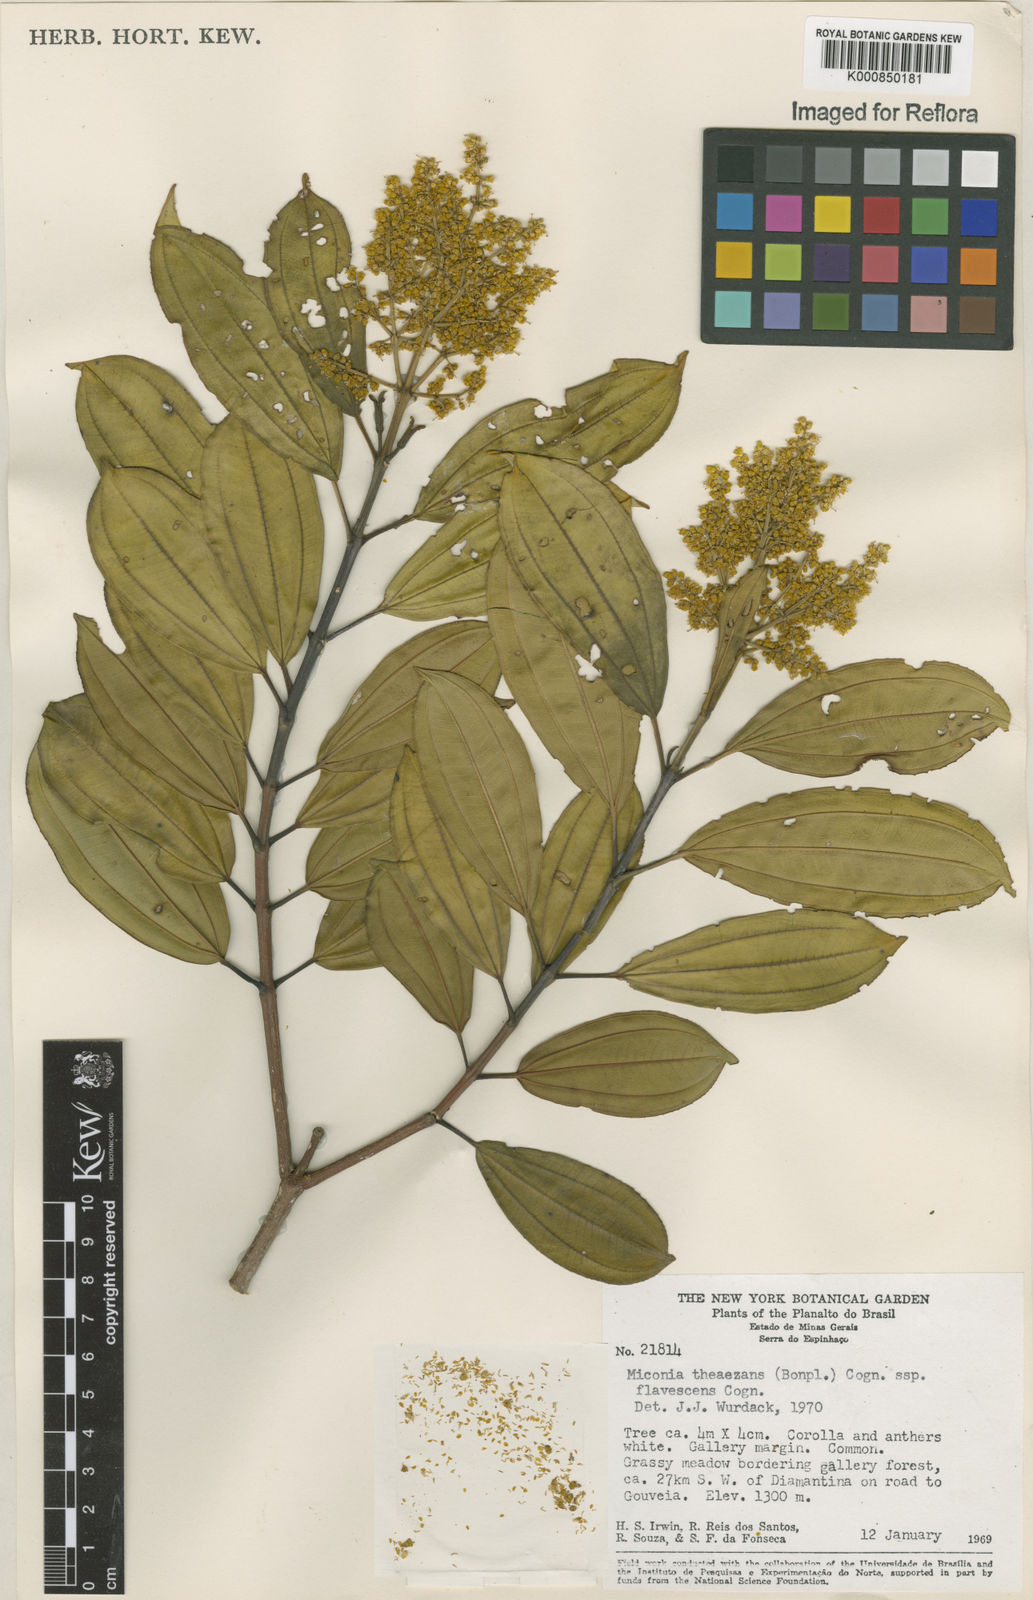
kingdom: Plantae
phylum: Tracheophyta
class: Magnoliopsida
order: Myrtales
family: Melastomataceae
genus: Miconia
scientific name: Miconia
